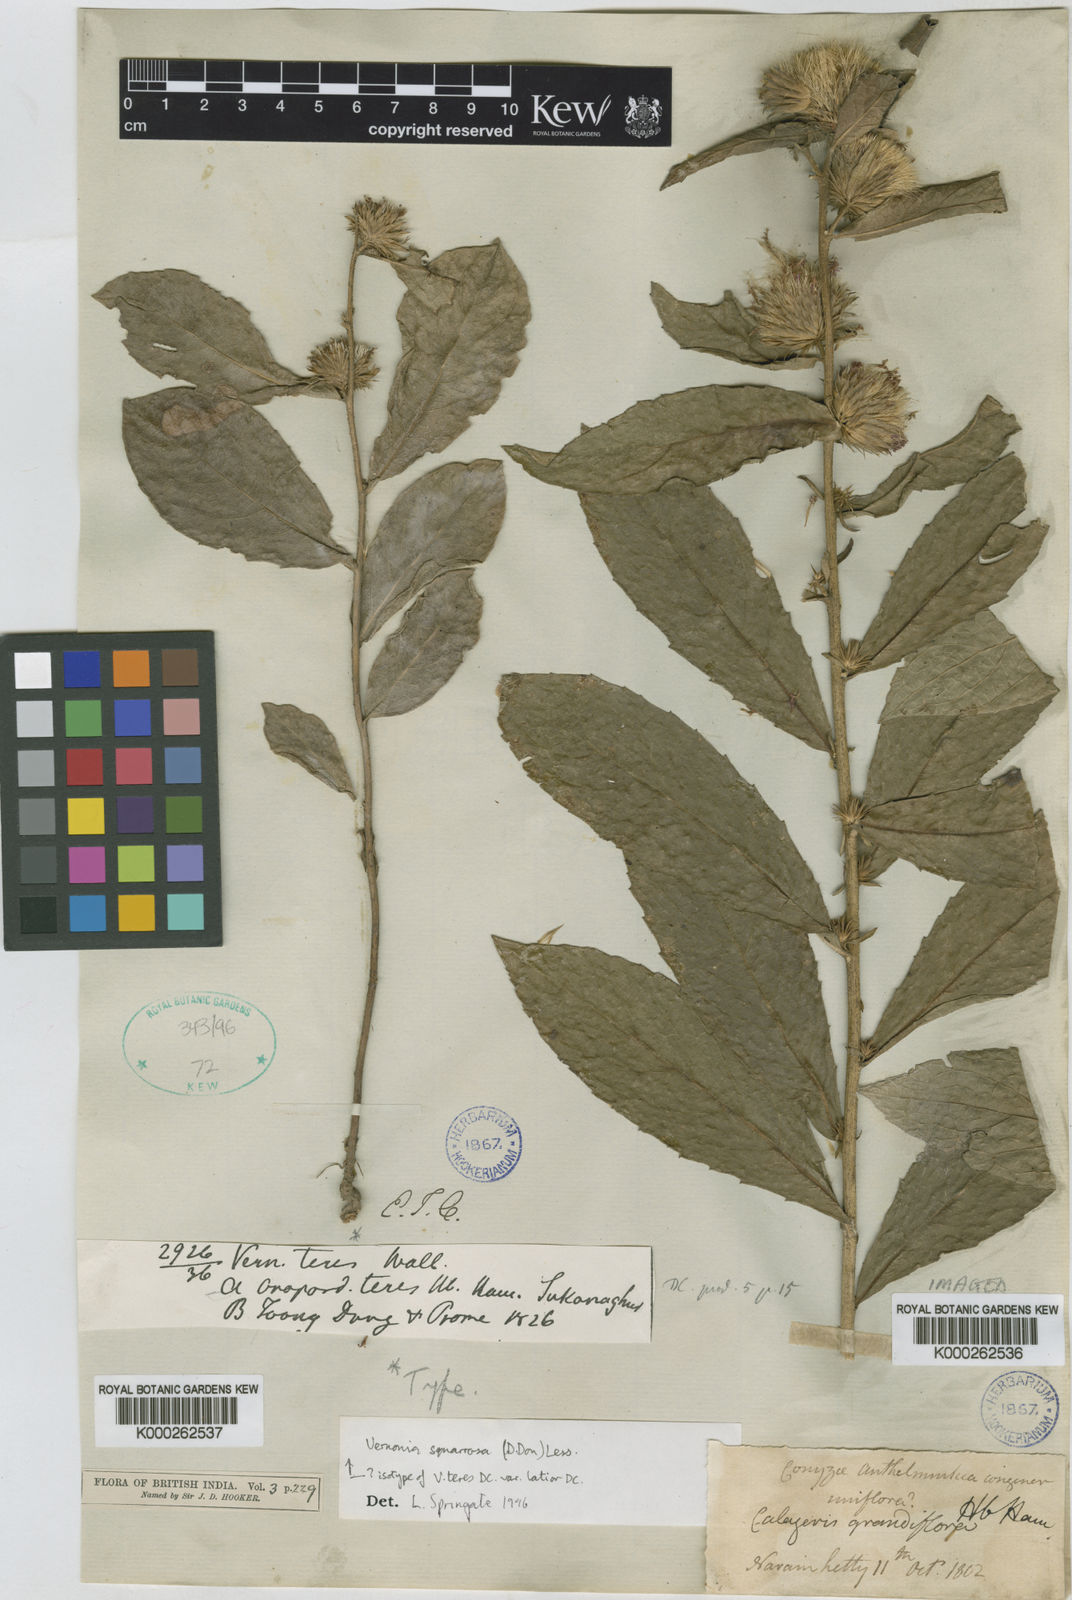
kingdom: Plantae
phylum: Tracheophyta
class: Magnoliopsida
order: Asterales
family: Asteraceae
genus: Lessingianthus
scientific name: Lessingianthus plantaginoides
